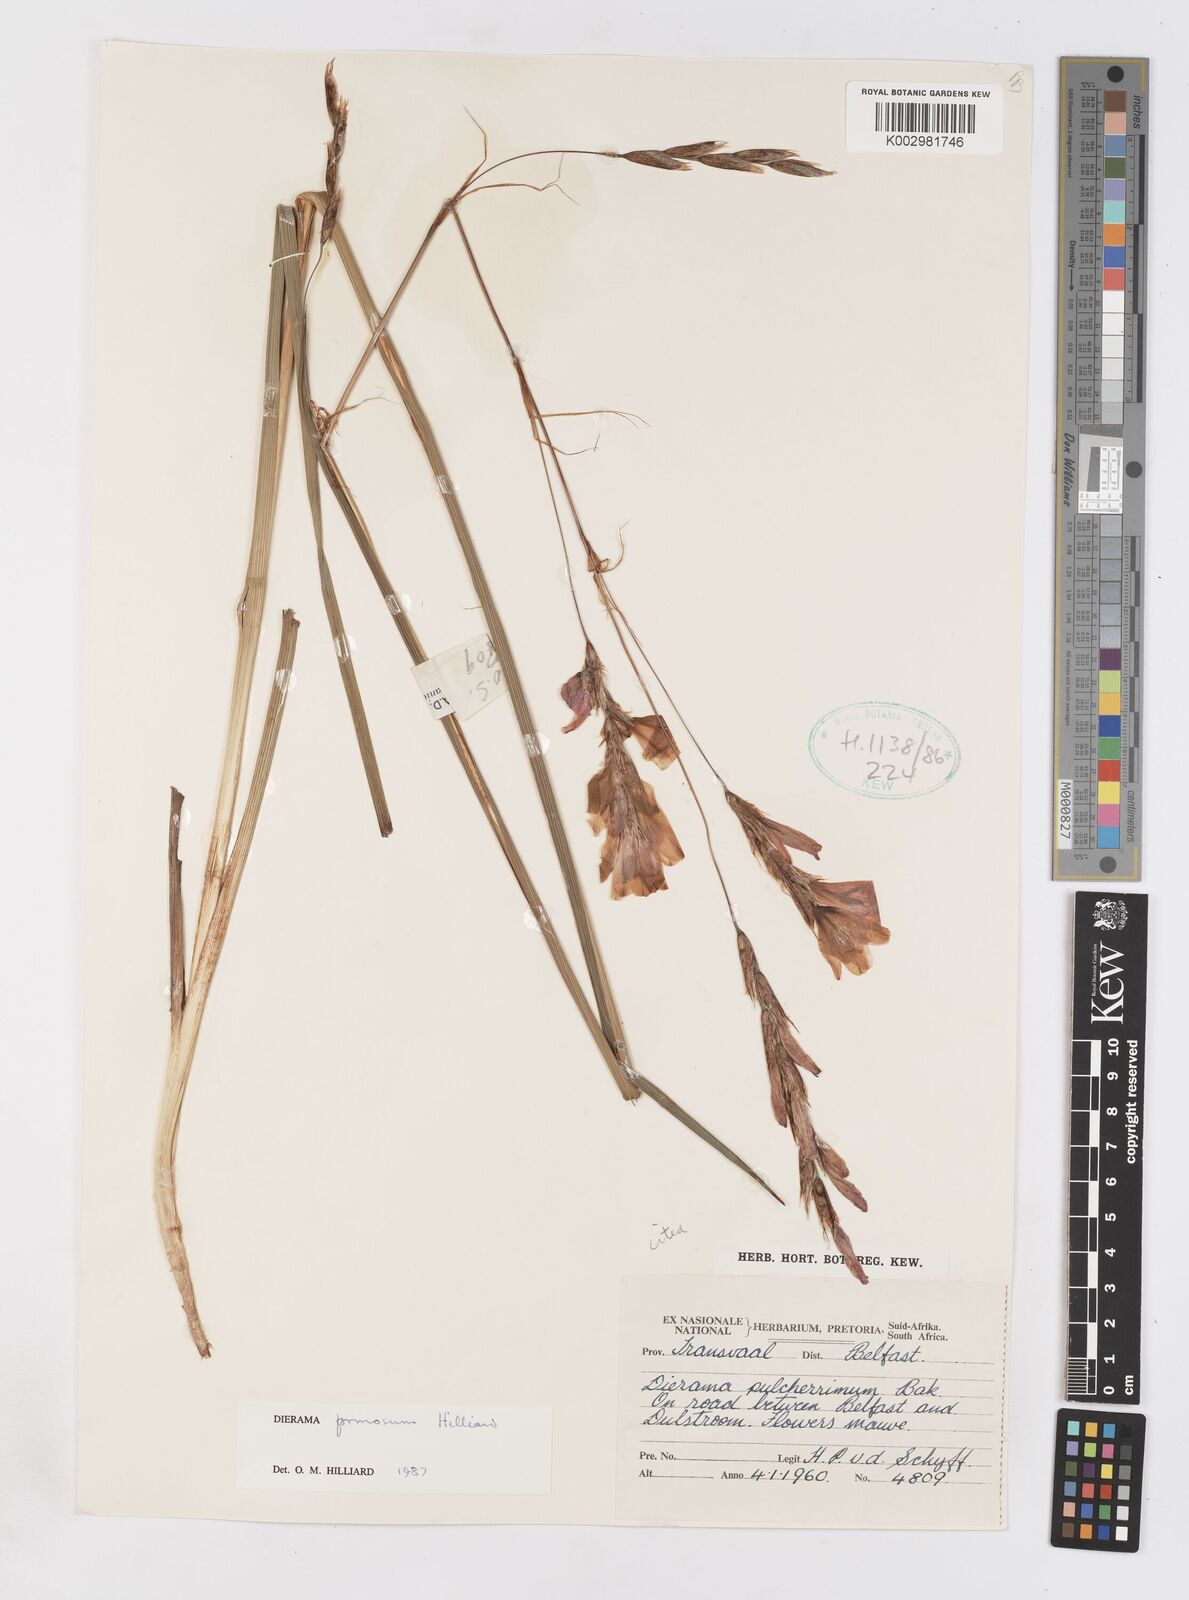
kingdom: Plantae
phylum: Tracheophyta
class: Liliopsida
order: Asparagales
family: Iridaceae
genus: Dierama
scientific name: Dierama formosum
